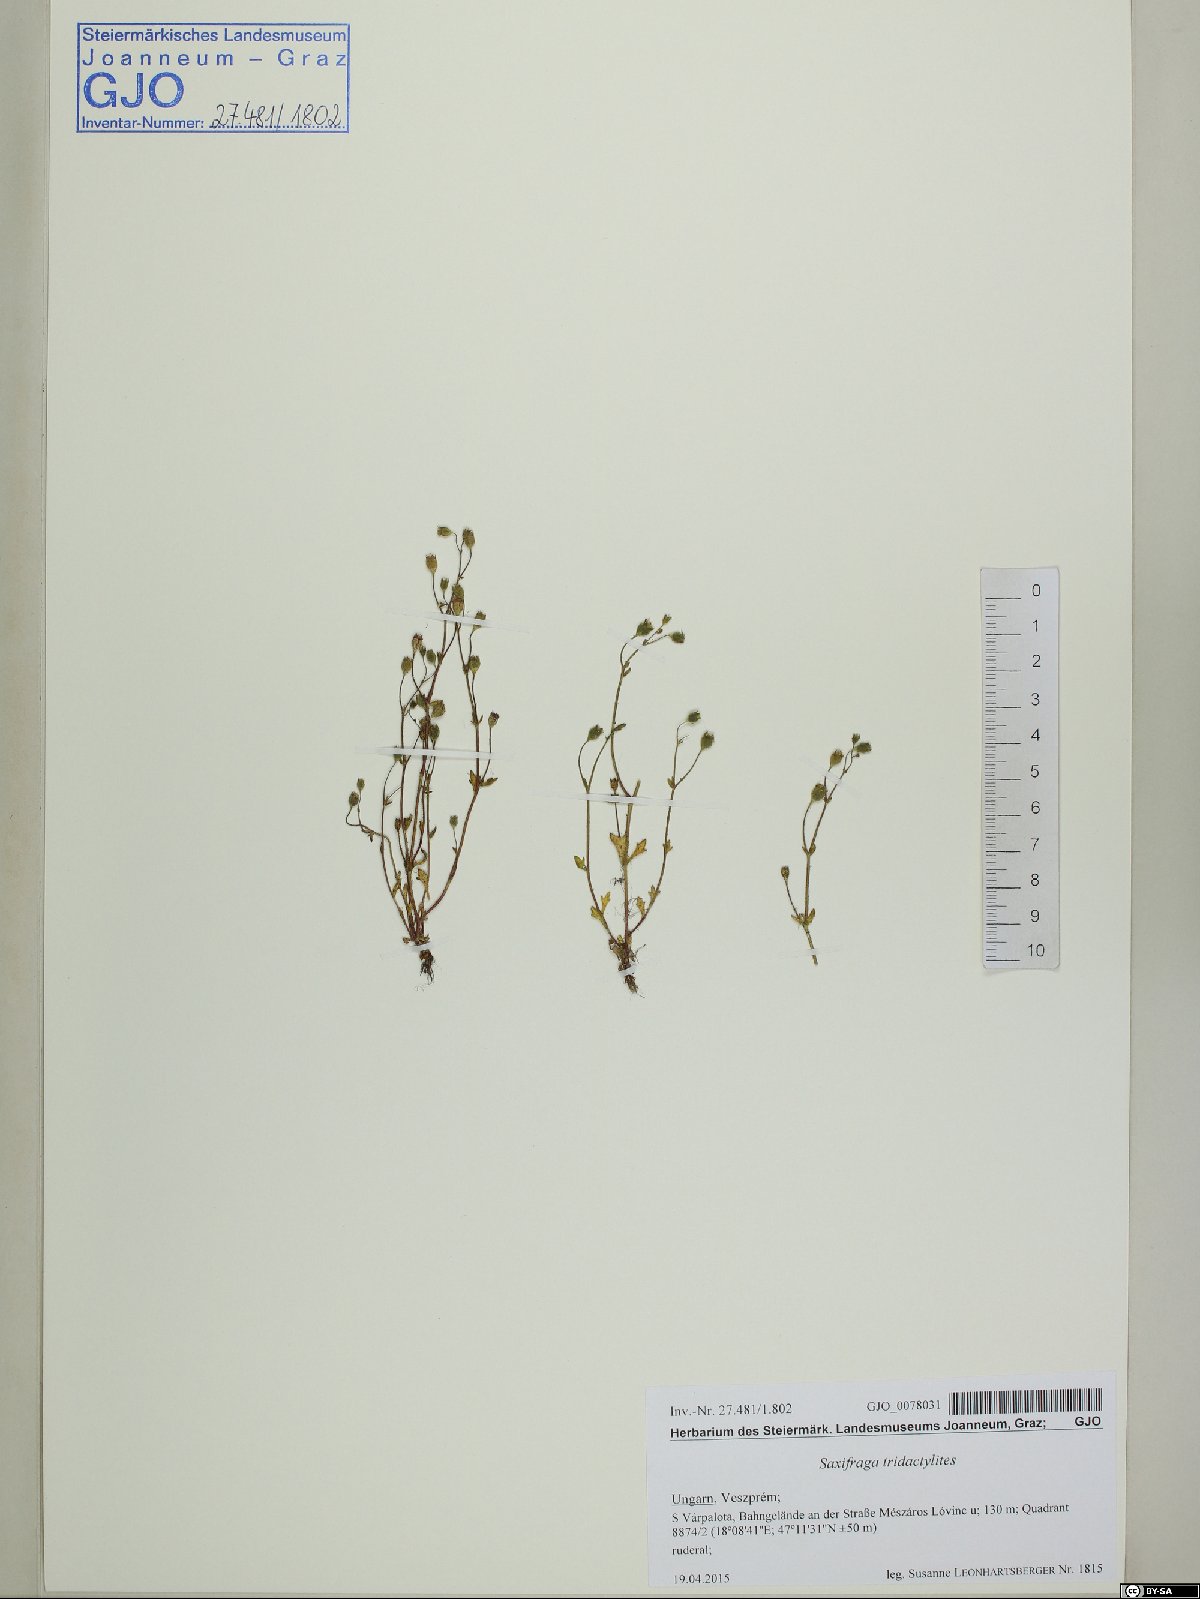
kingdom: Plantae
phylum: Tracheophyta
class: Magnoliopsida
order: Saxifragales
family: Saxifragaceae
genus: Saxifraga
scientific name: Saxifraga tridactylites
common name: Rue-leaved saxifrage
